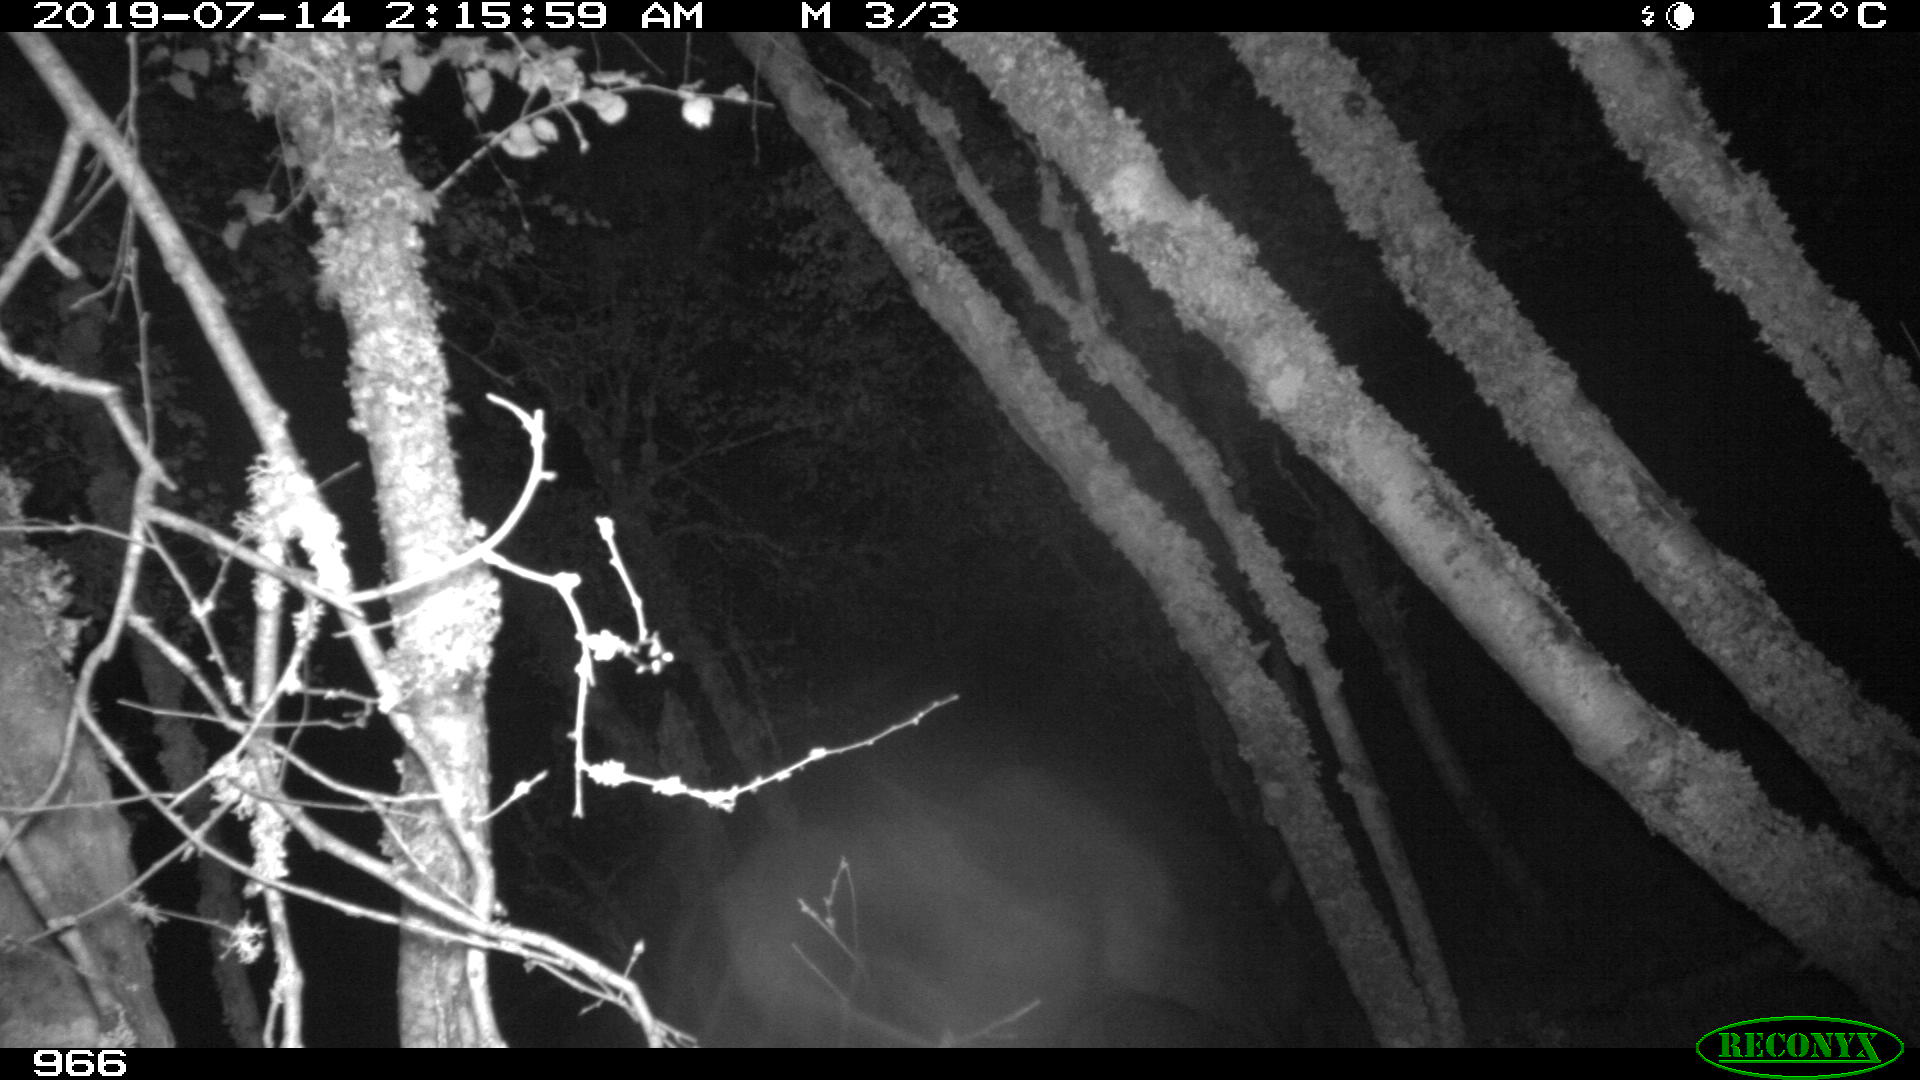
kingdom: Animalia
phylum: Chordata
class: Mammalia
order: Perissodactyla
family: Equidae
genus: Equus
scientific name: Equus caballus
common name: Horse
